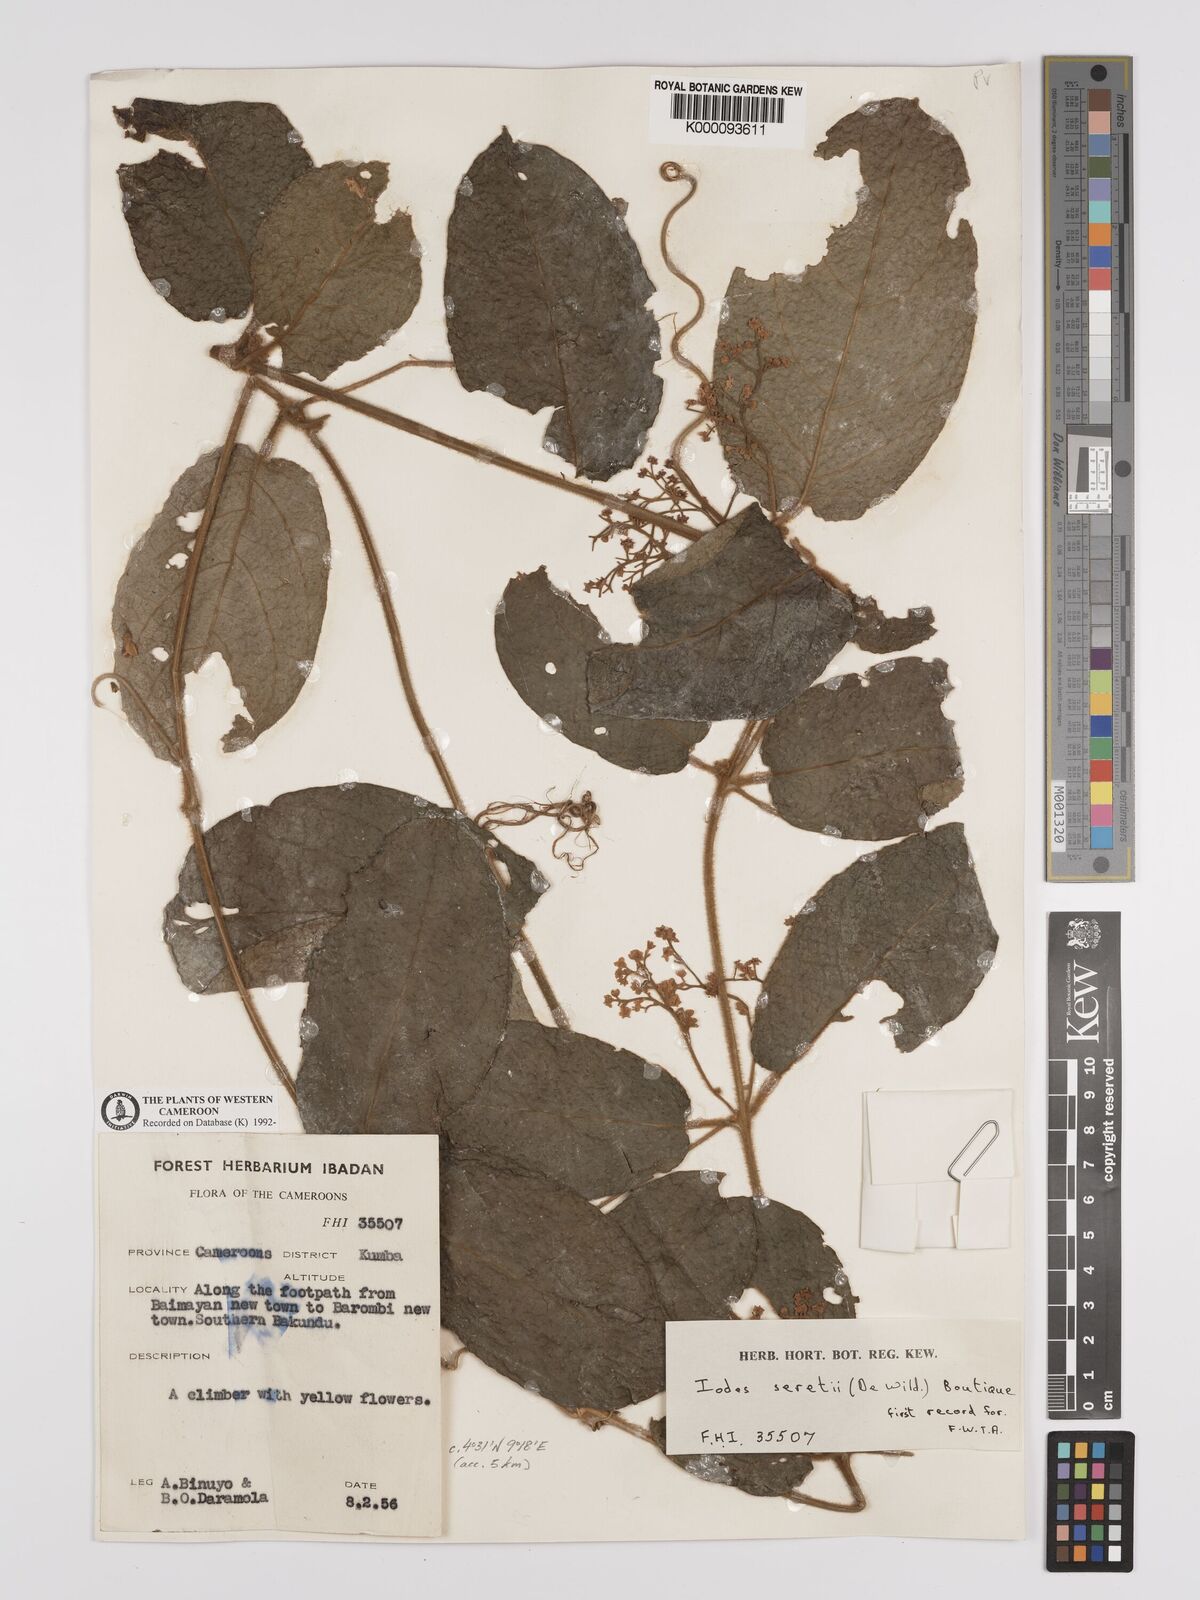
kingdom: Plantae
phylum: Tracheophyta
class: Magnoliopsida
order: Icacinales
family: Icacinaceae
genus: Iodes
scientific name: Iodes seretii
